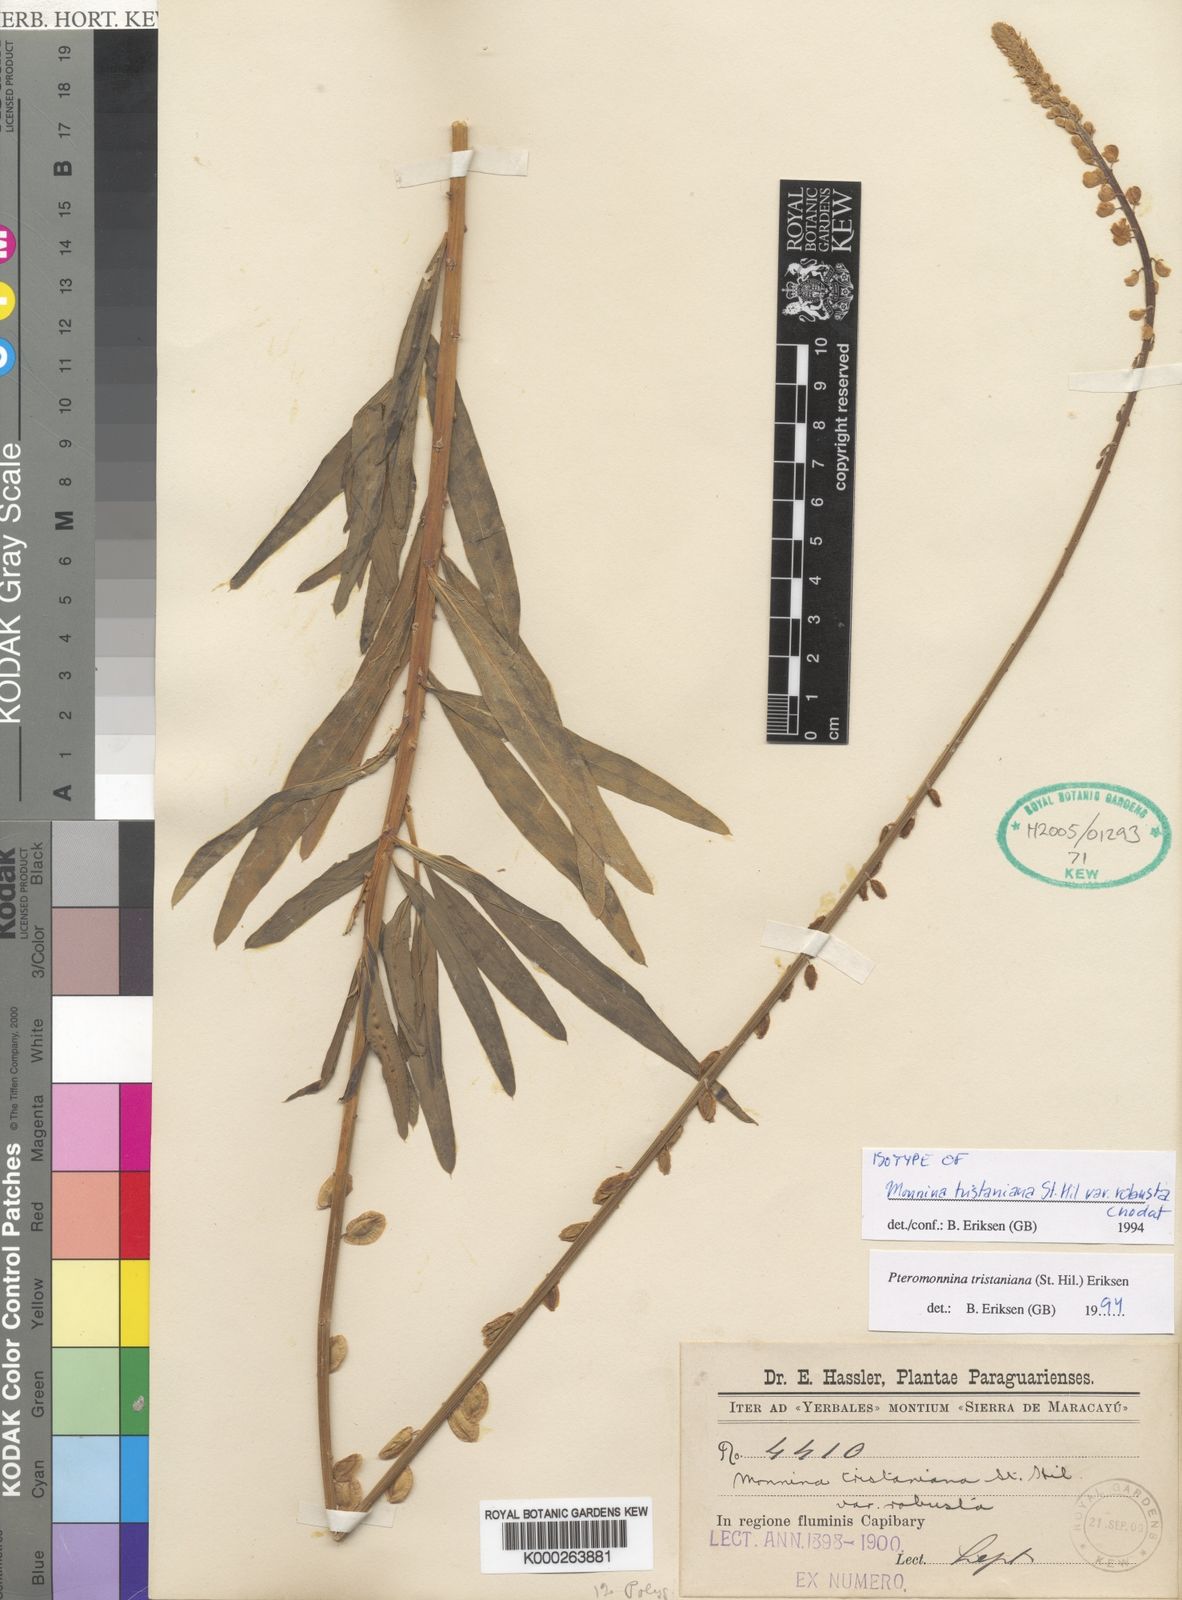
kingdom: Plantae
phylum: Tracheophyta
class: Magnoliopsida
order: Fabales
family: Polygalaceae
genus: Monnina
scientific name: Monnina tristaniana
